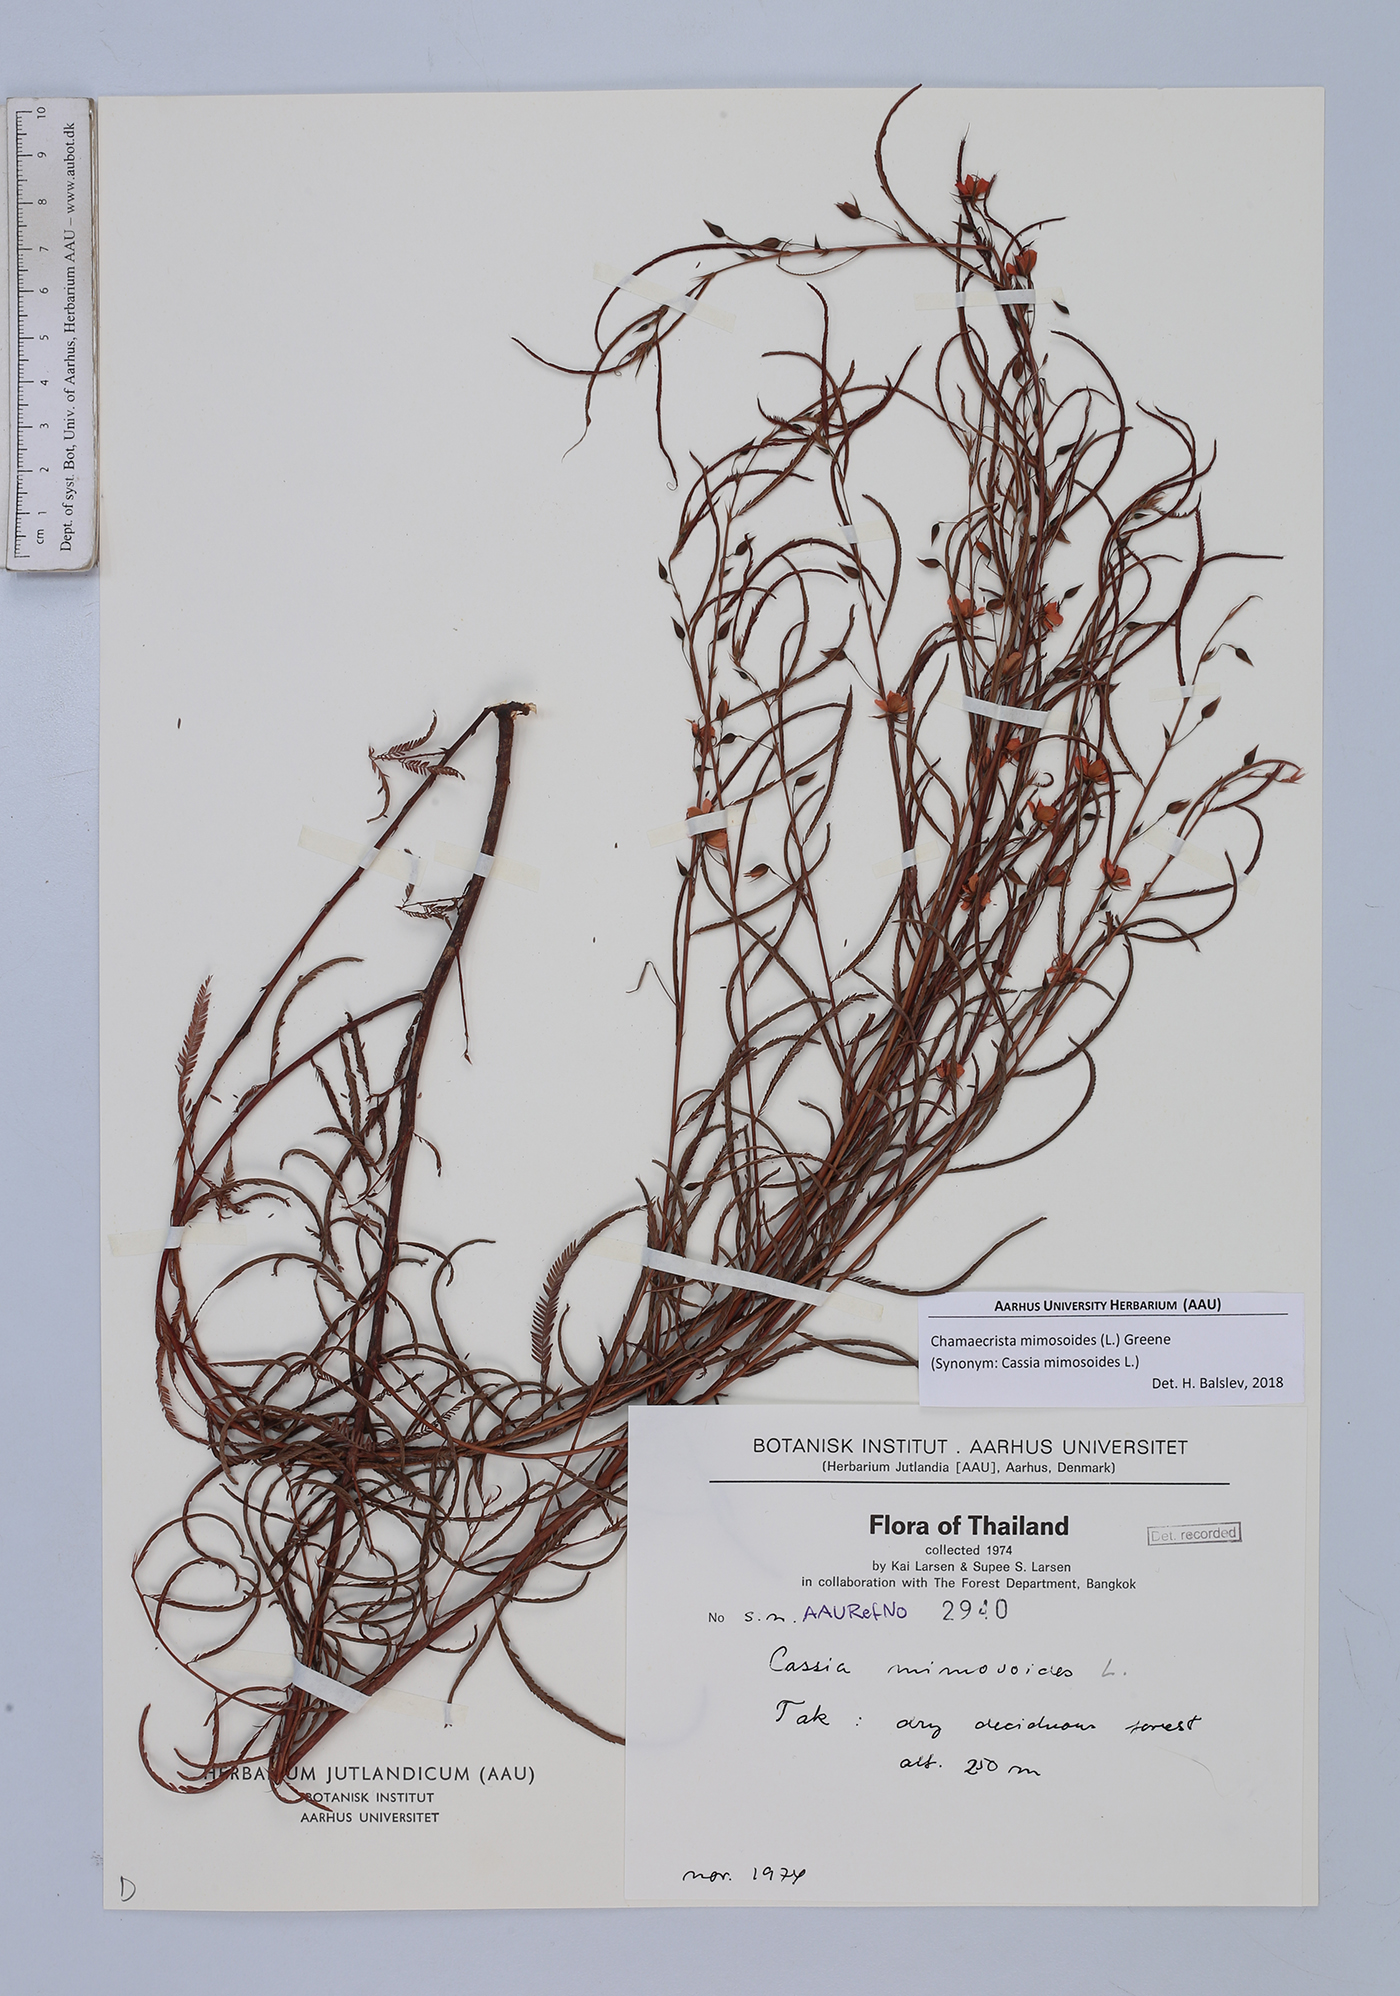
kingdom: Plantae
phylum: Tracheophyta
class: Magnoliopsida
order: Fabales
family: Fabaceae
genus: Chamaecrista
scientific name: Chamaecrista mimosoides
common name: Fish-bone cassia
